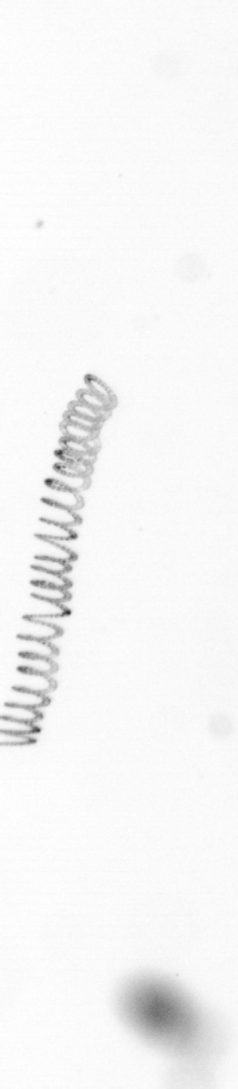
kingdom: Chromista
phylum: Ochrophyta
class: Bacillariophyceae
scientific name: Bacillariophyceae
